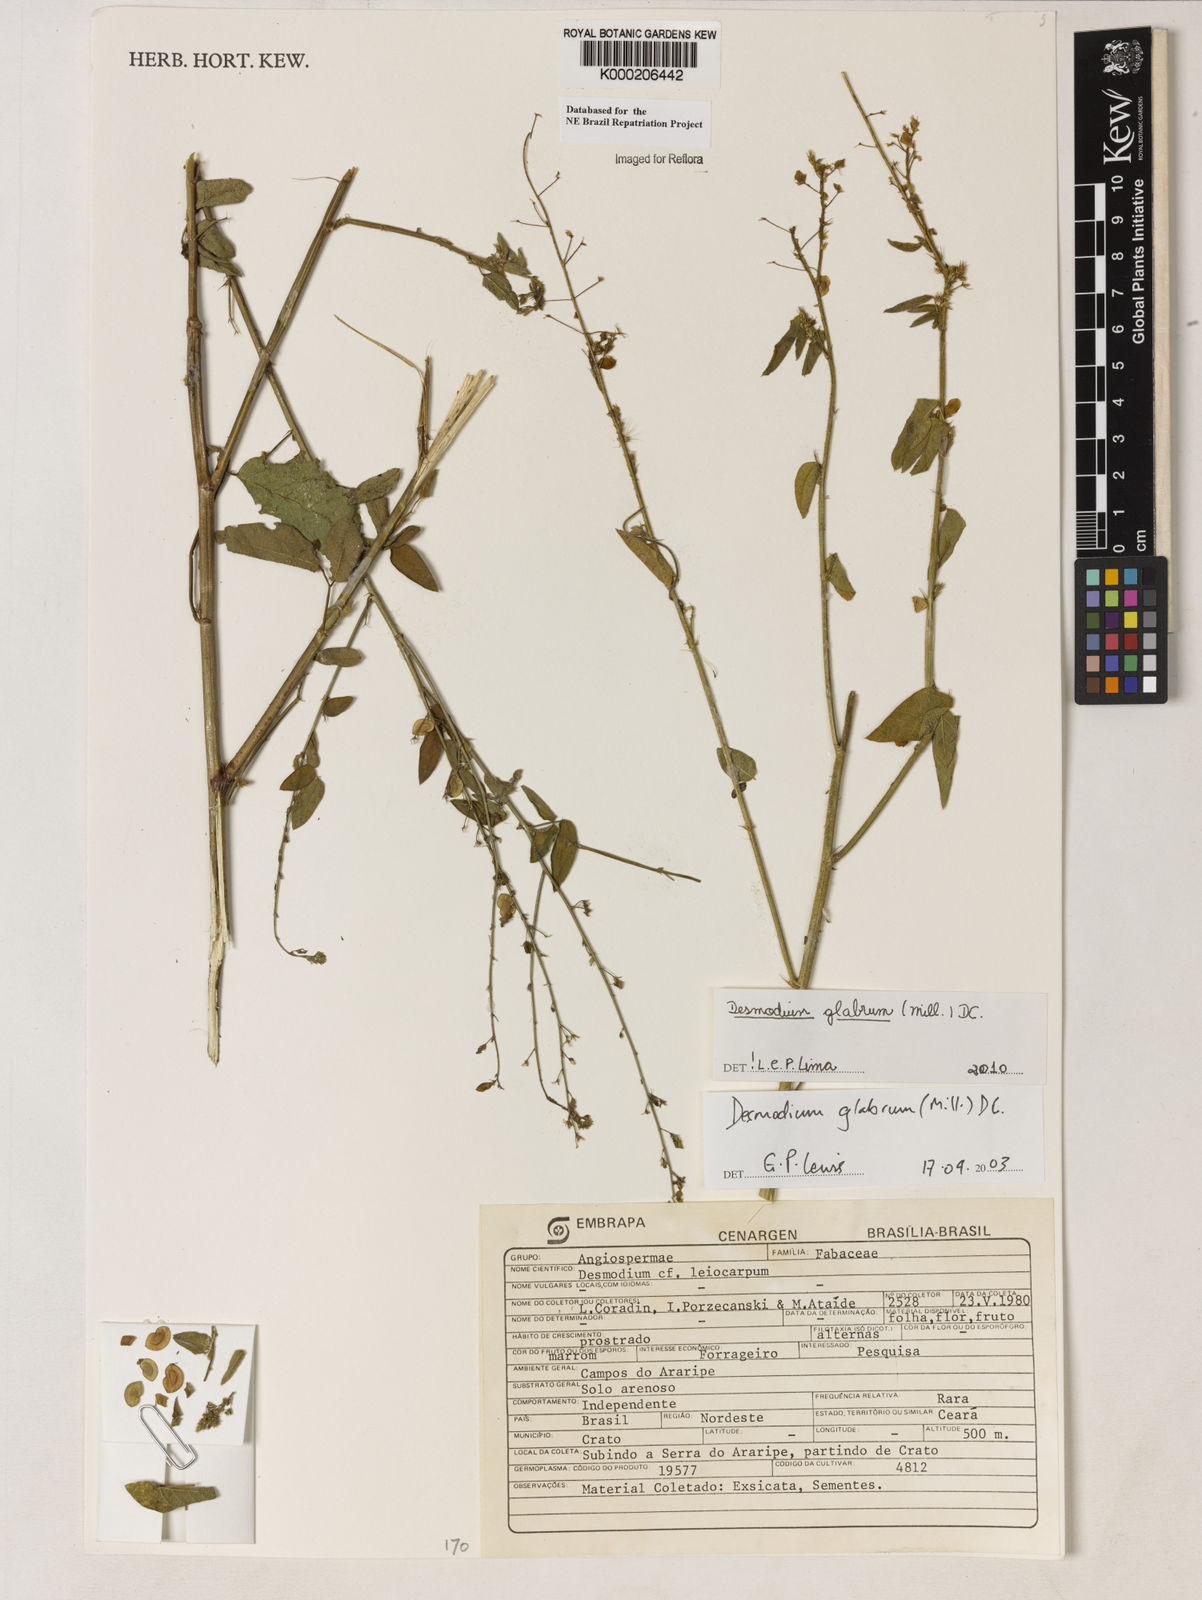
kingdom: Plantae
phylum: Tracheophyta
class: Magnoliopsida
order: Fabales
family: Fabaceae
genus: Desmodium
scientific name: Desmodium glabrum
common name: Zarzabacoa dulce
